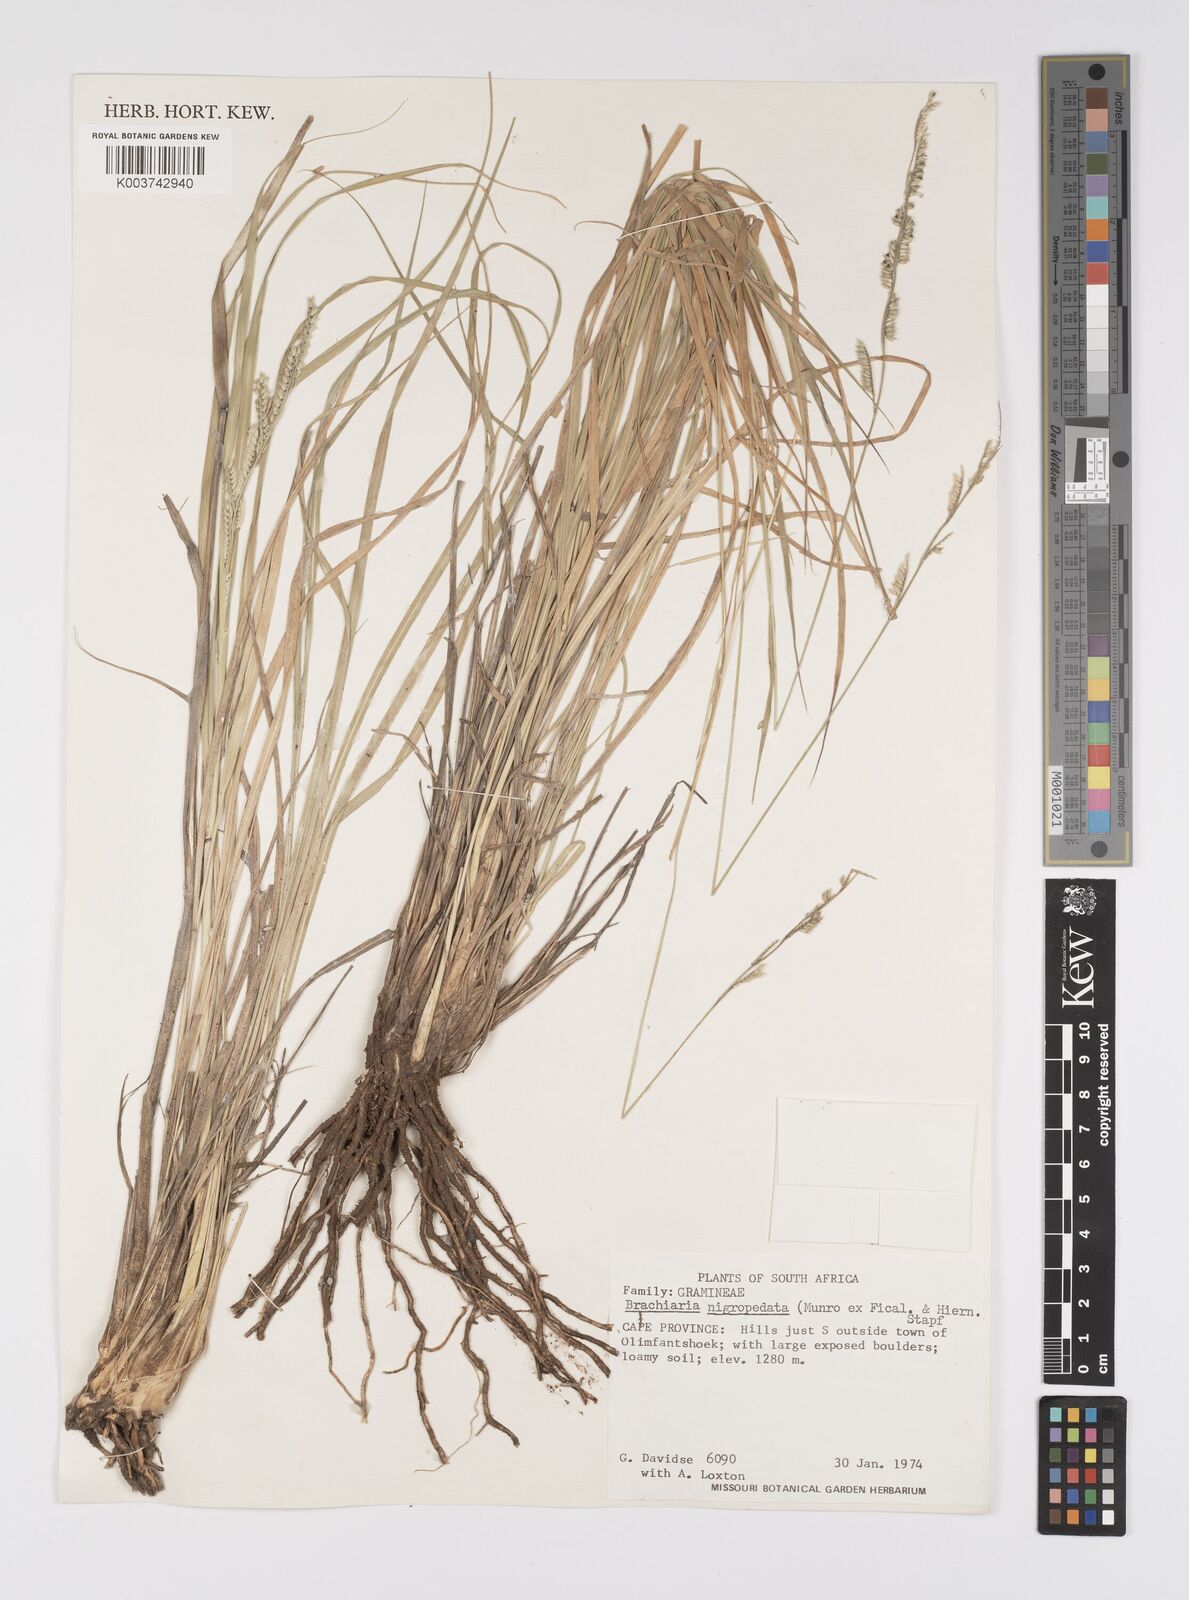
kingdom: Plantae
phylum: Tracheophyta
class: Liliopsida
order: Poales
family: Poaceae
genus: Urochloa
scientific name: Urochloa nigropedata
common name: Spotted signal grass
